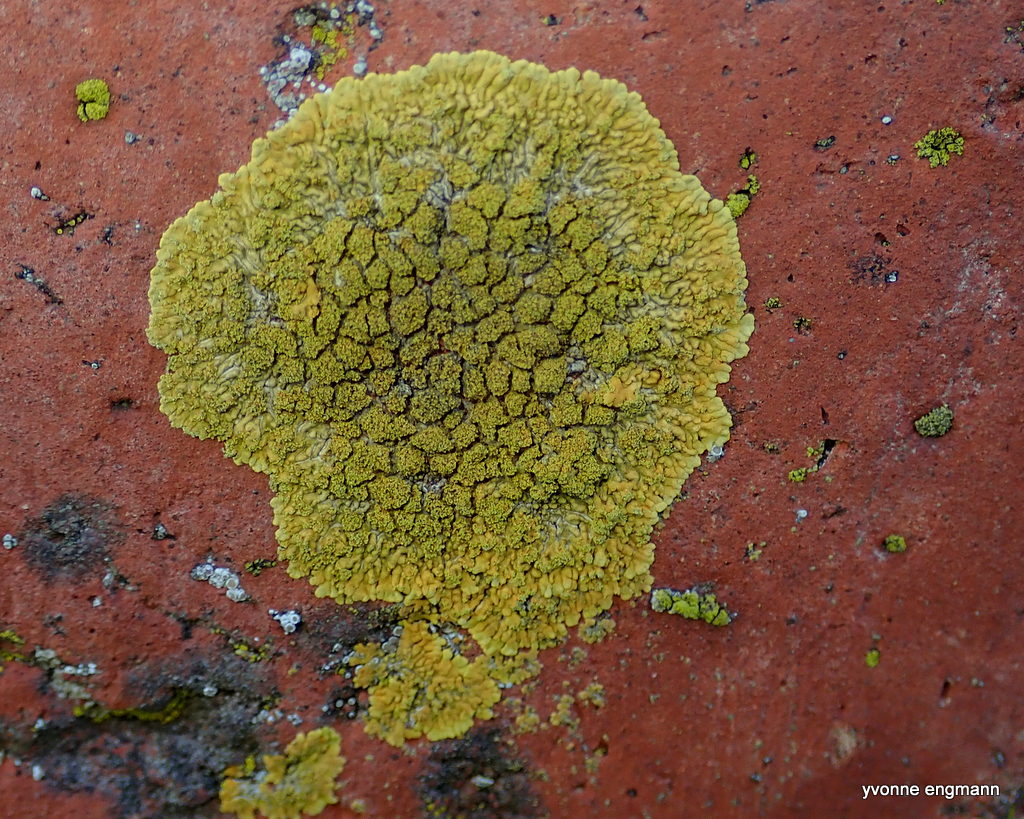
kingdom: Fungi
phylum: Ascomycota
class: Lecanoromycetes
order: Teloschistales
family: Teloschistaceae
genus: Calogaya
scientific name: Calogaya decipiens
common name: knudret orangelav
